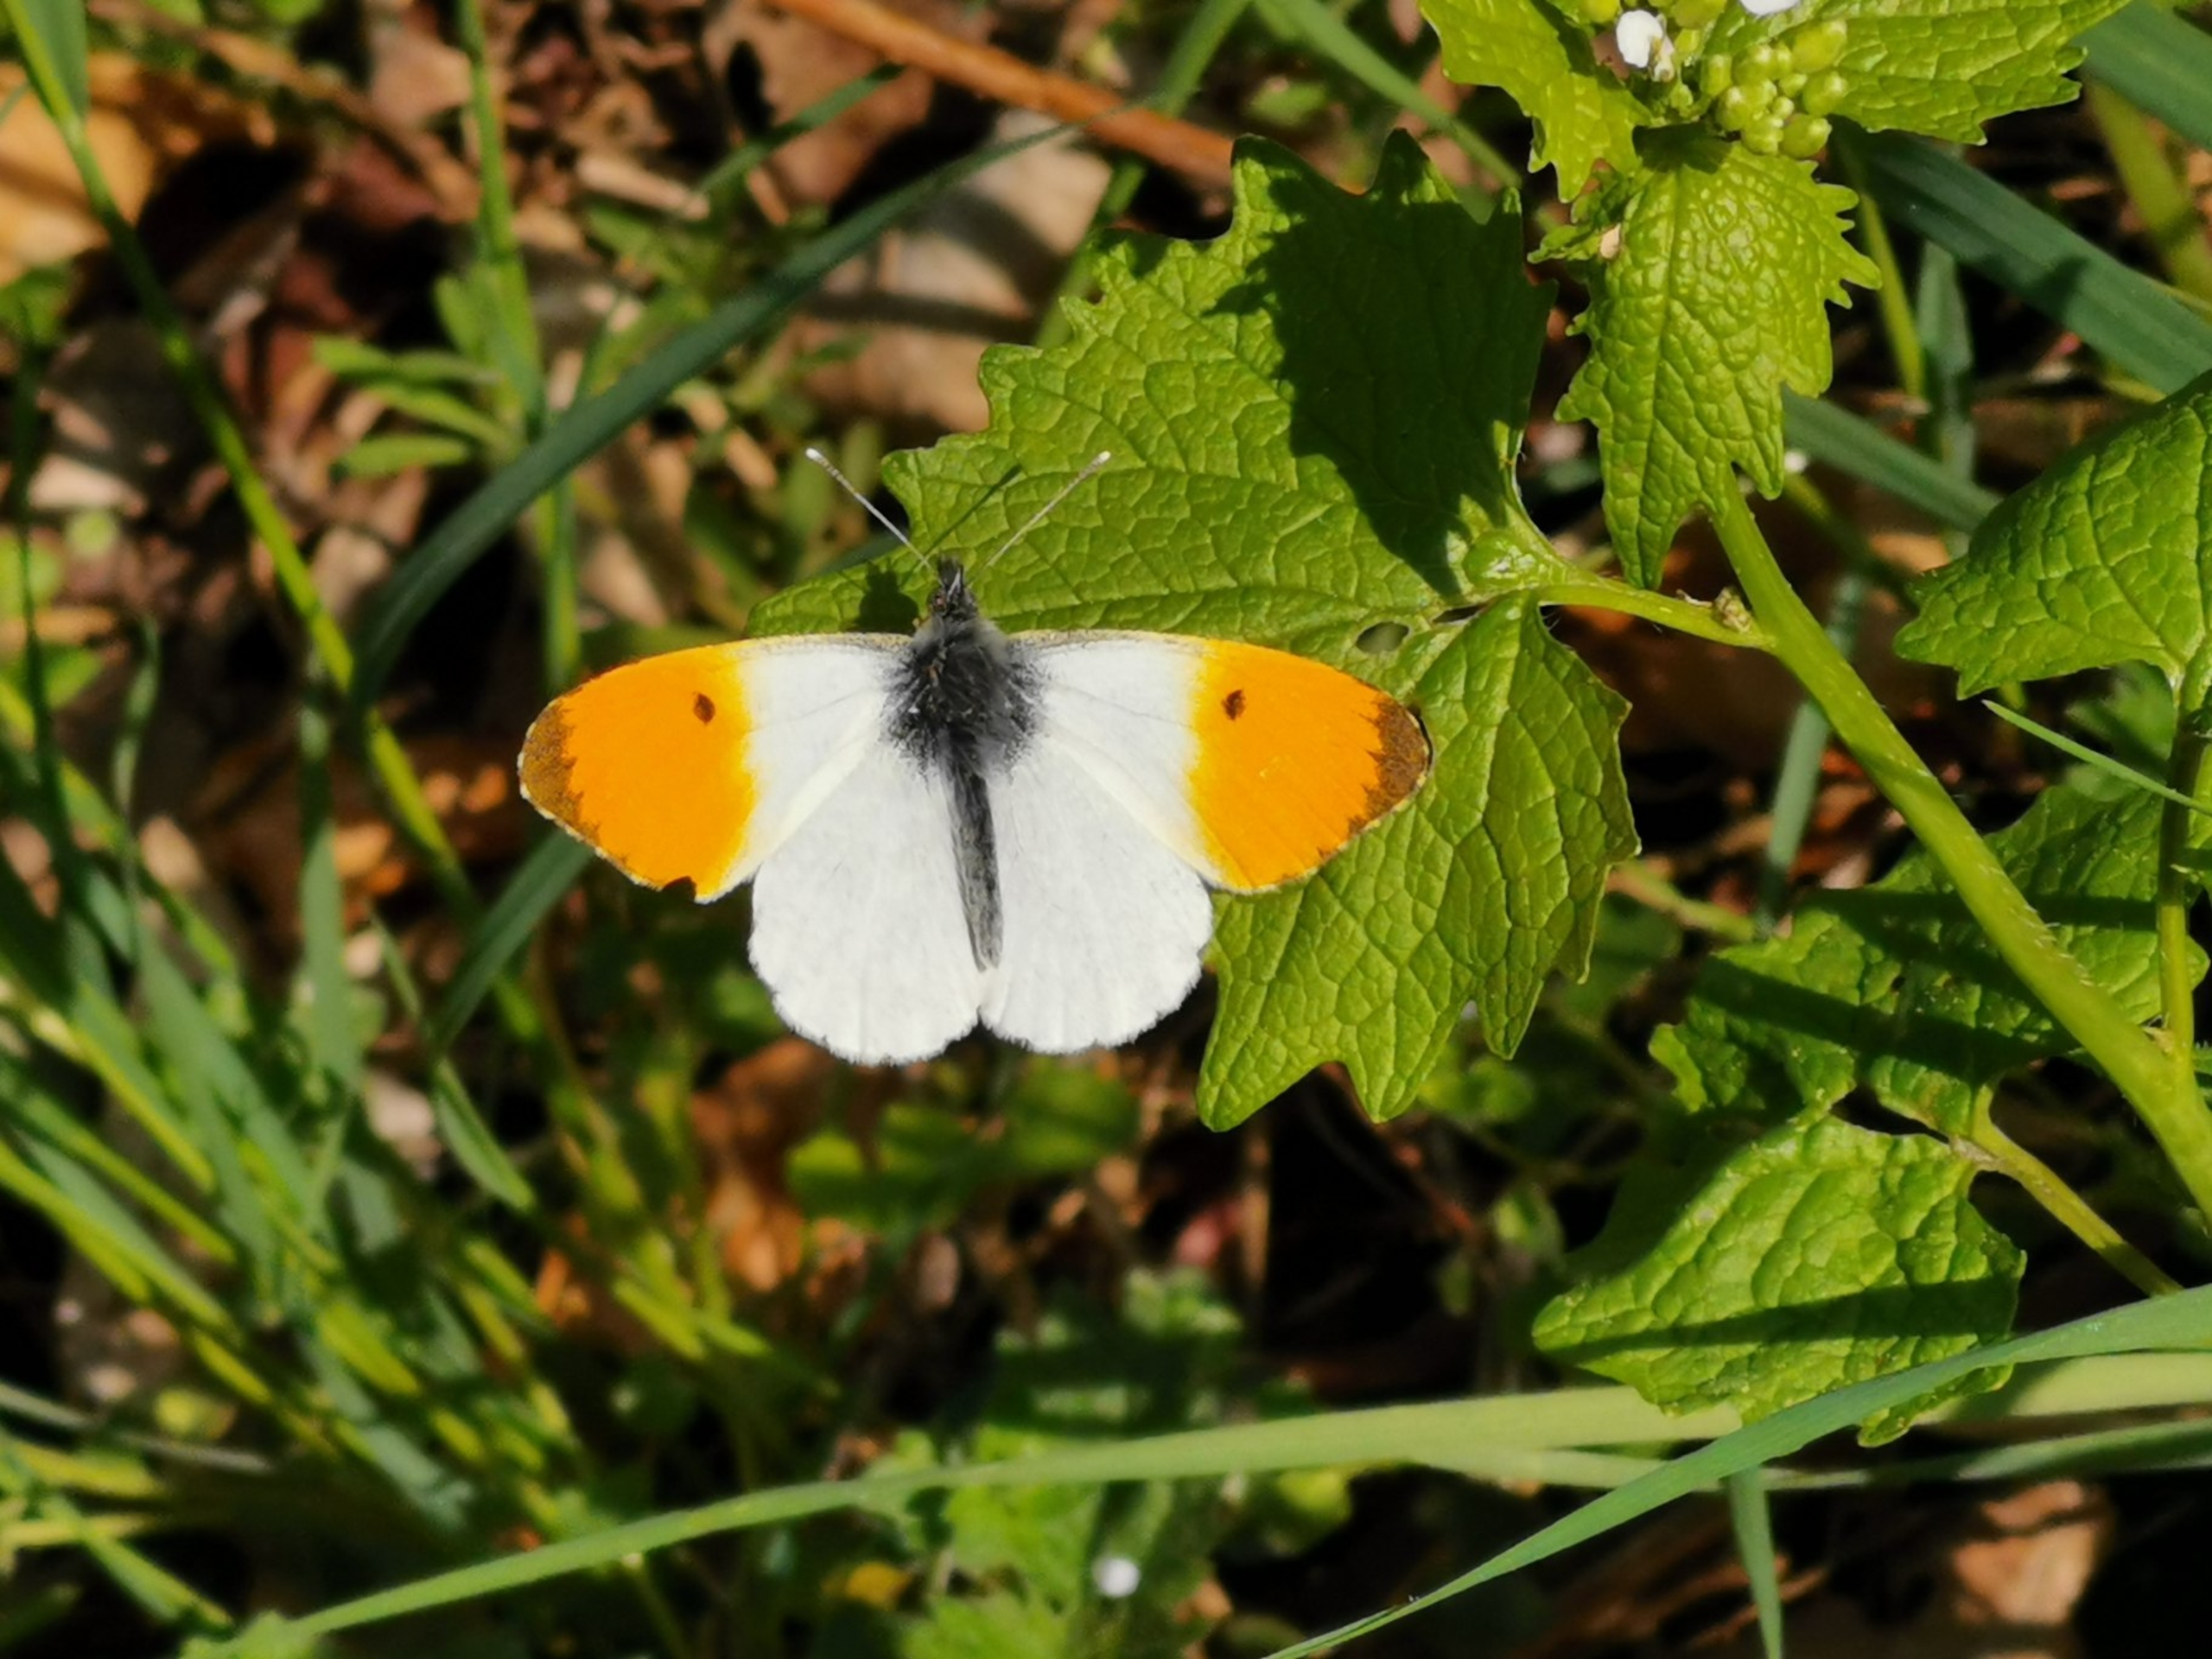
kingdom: Animalia
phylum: Arthropoda
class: Insecta
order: Lepidoptera
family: Pieridae
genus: Anthocharis
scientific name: Anthocharis cardamines
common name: Aurora
